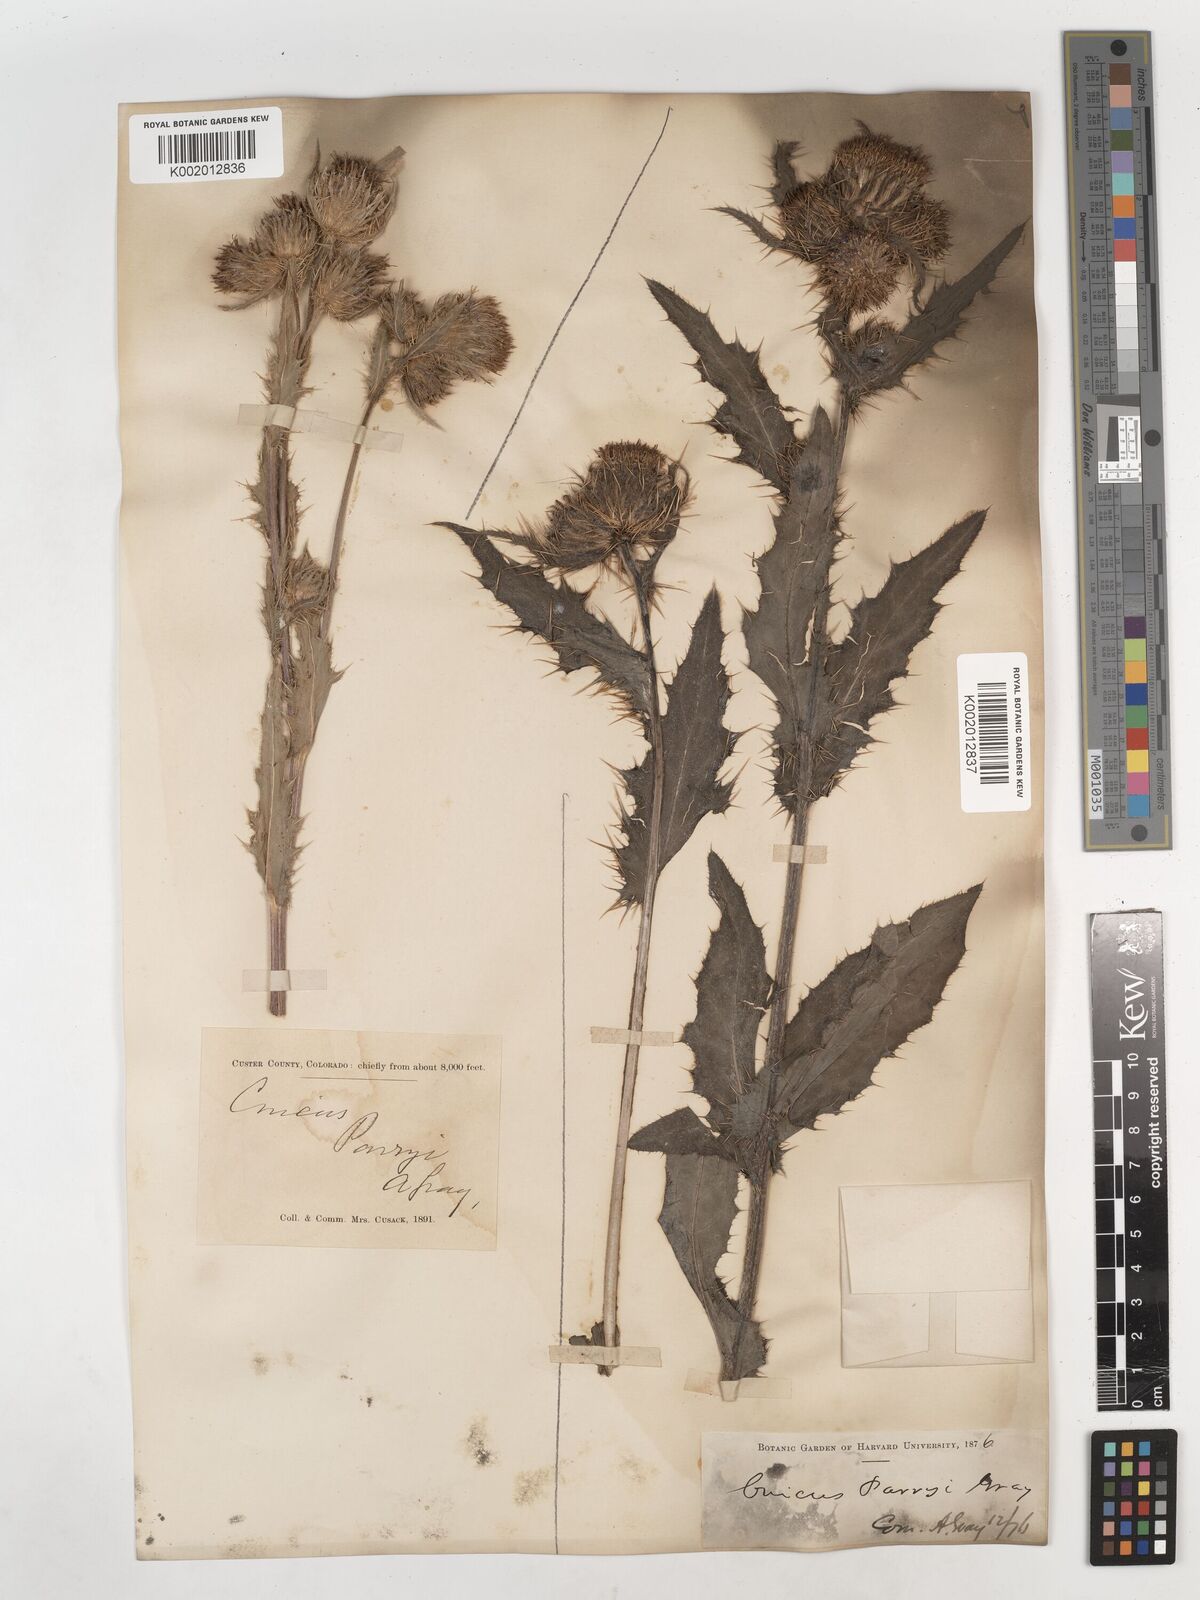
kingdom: Plantae
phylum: Tracheophyta
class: Magnoliopsida
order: Asterales
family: Asteraceae
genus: Cirsium
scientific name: Cirsium parryi
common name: Parry's thistle
